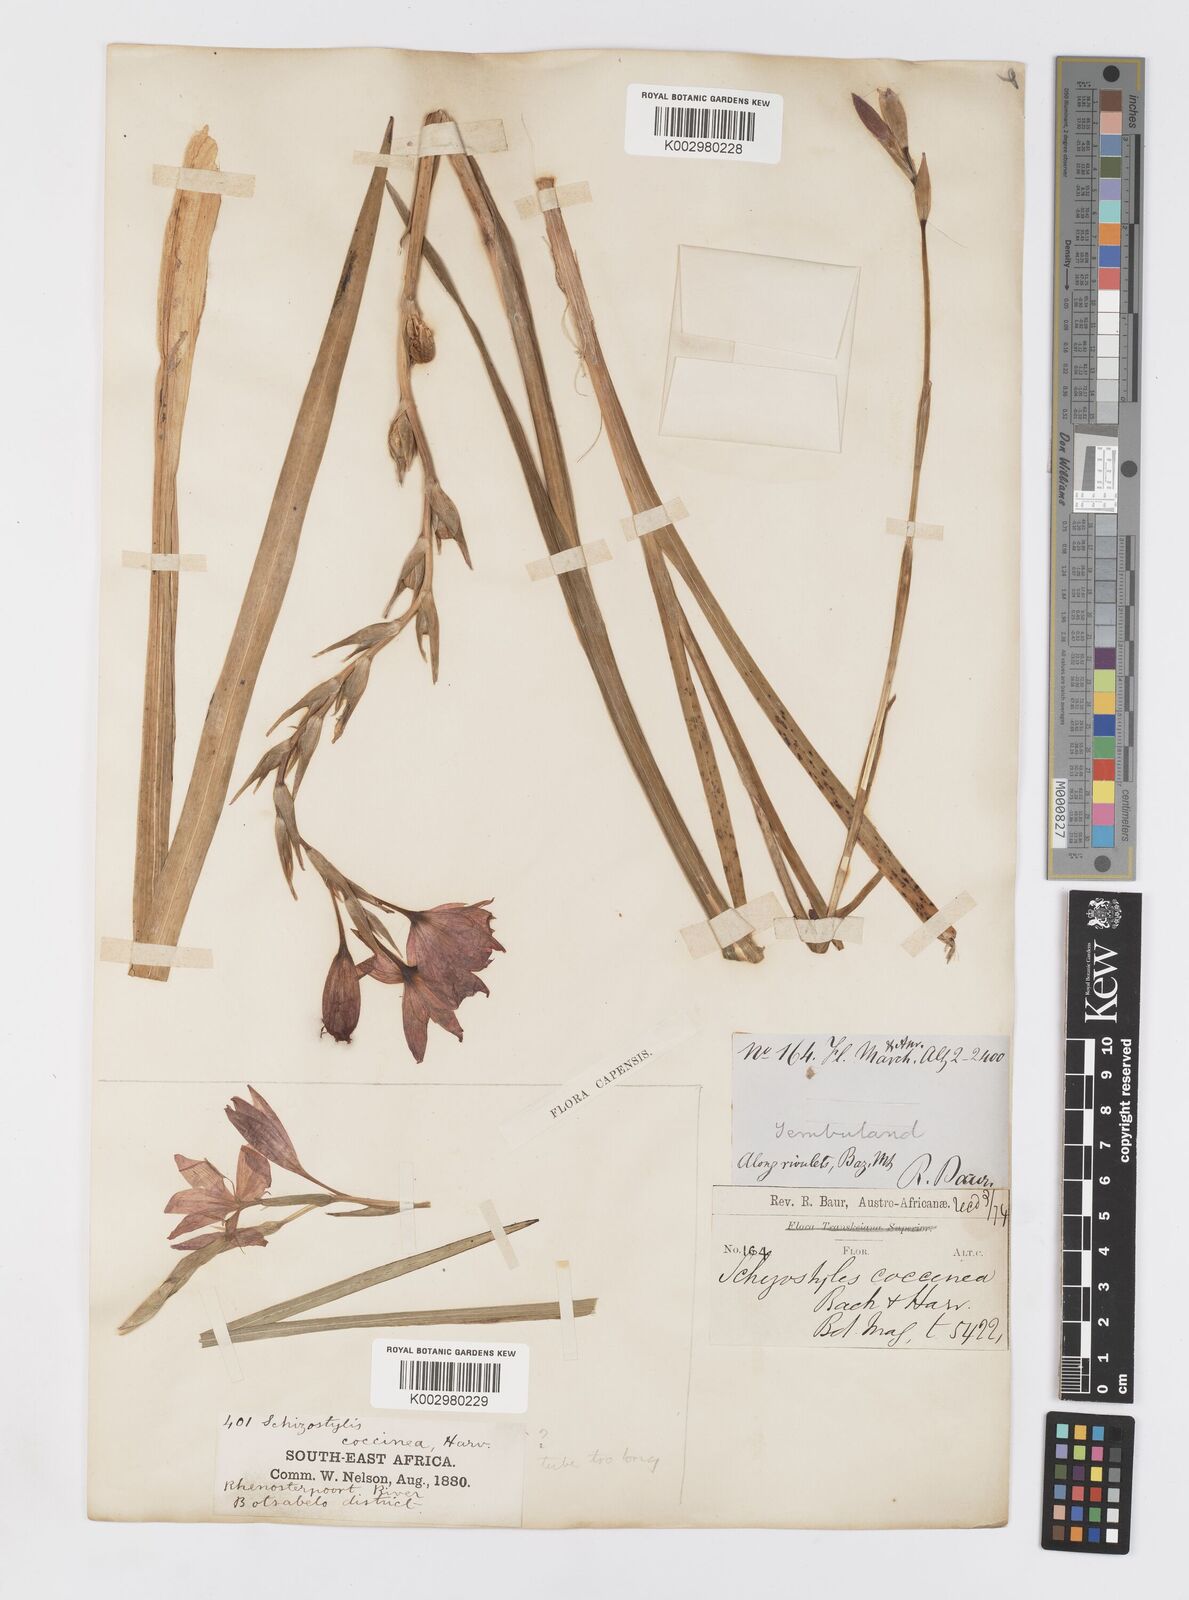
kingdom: Plantae
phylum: Tracheophyta
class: Liliopsida
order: Asparagales
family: Iridaceae
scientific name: Iridaceae
